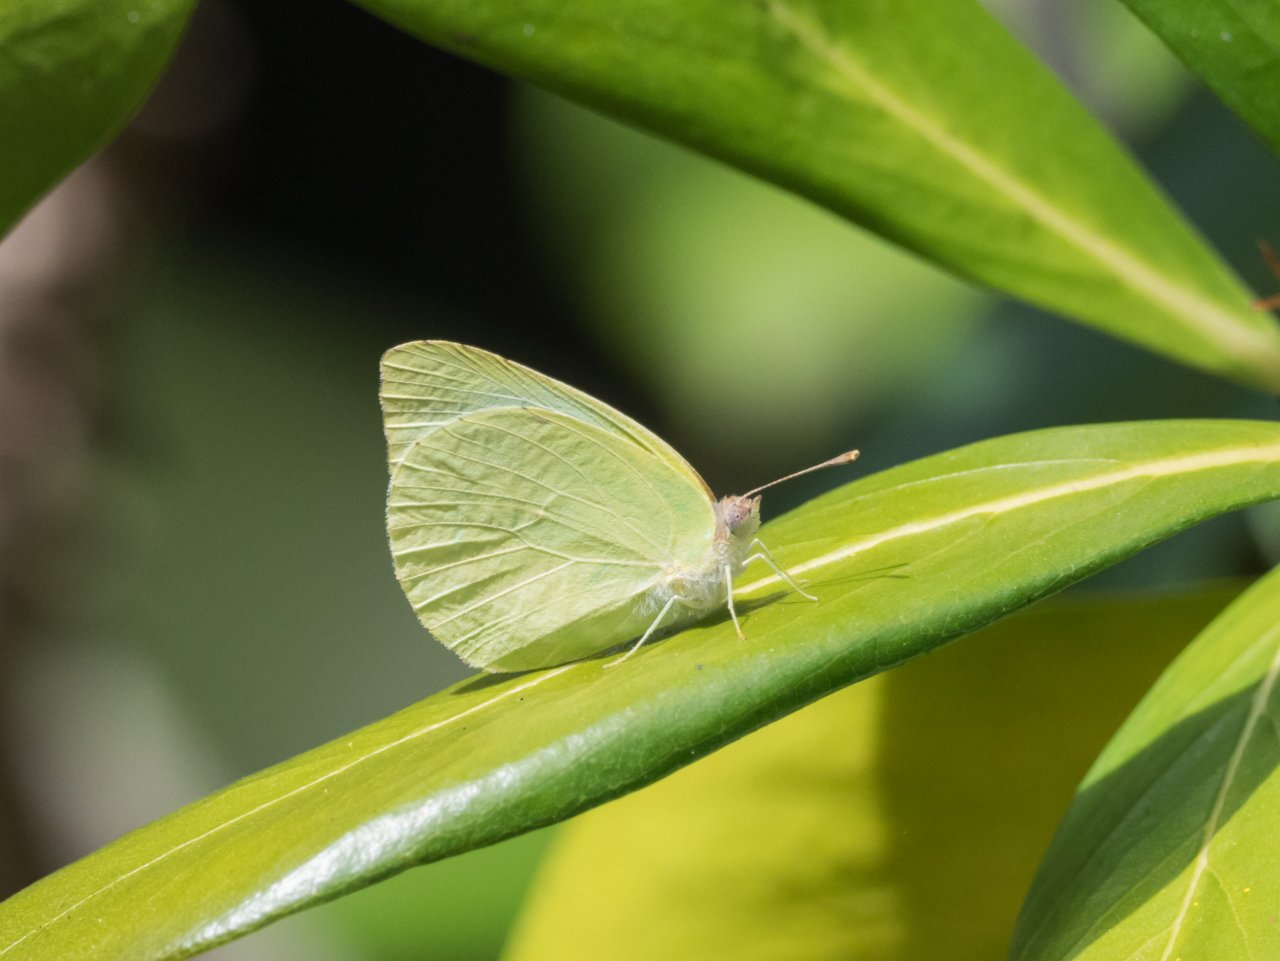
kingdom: Animalia
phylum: Arthropoda
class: Insecta
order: Lepidoptera
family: Pieridae
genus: Aphrissa
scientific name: Aphrissa statira
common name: Statira Sulphur
